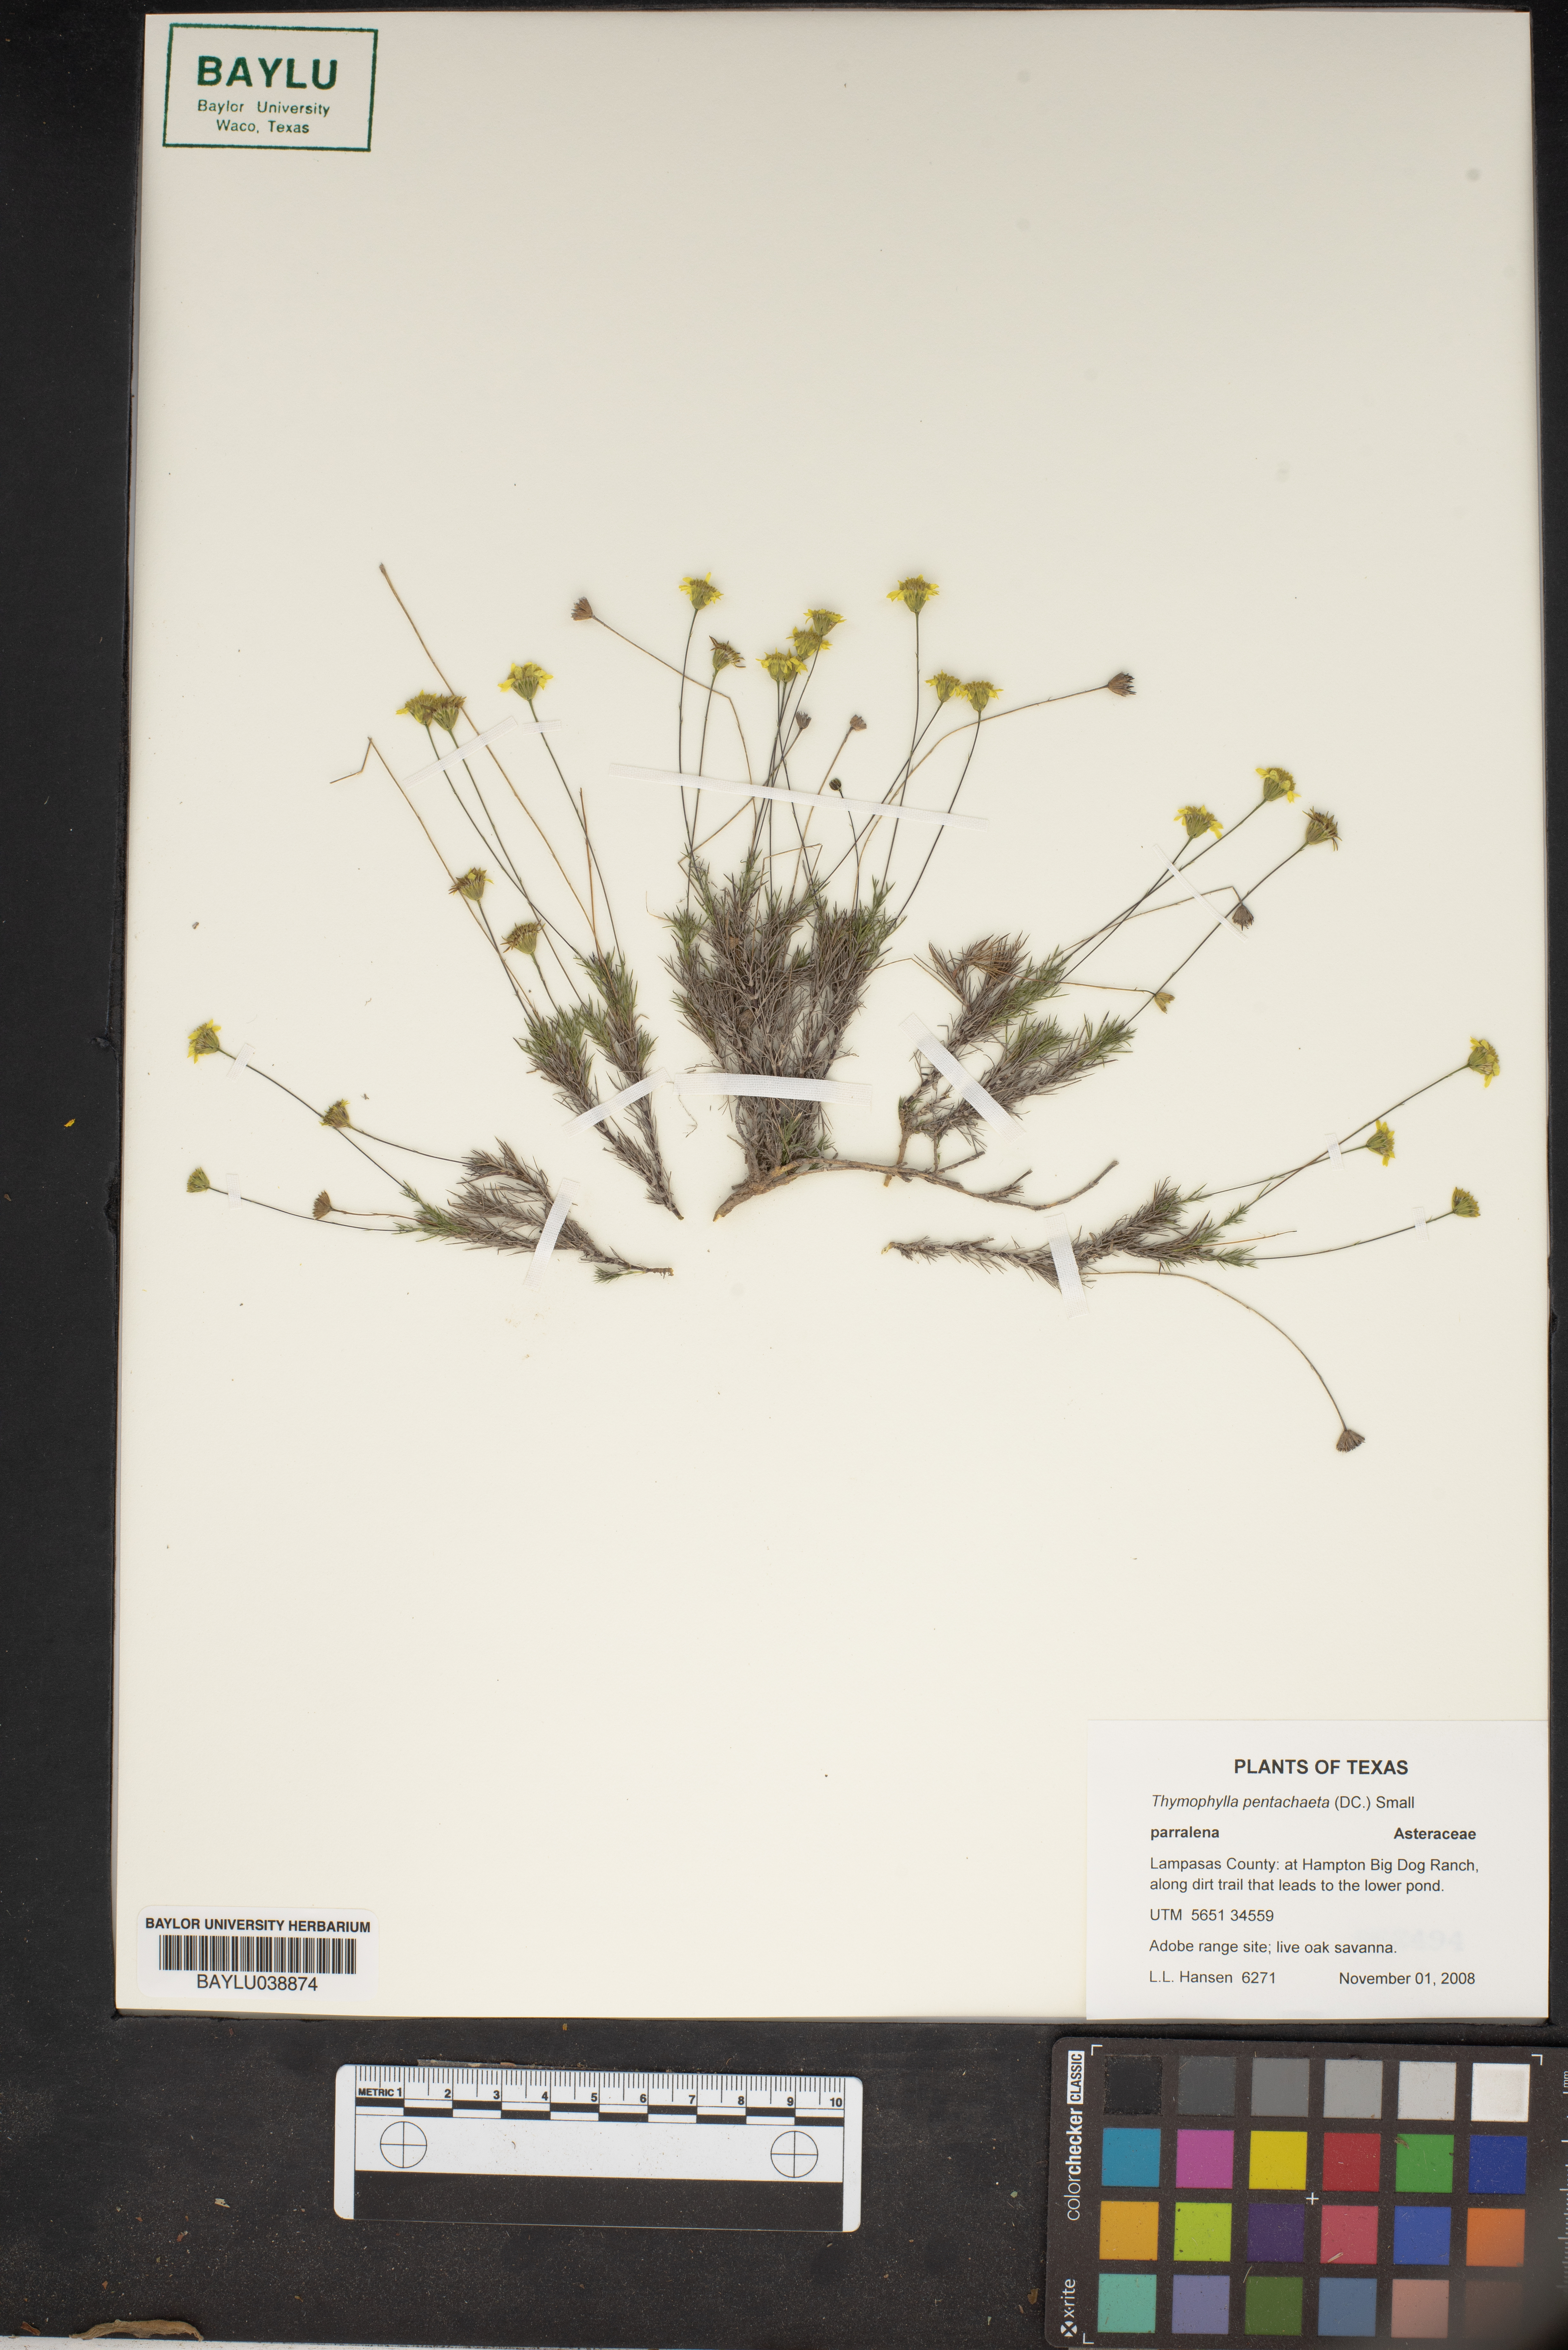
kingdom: Plantae
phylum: Tracheophyta
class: Magnoliopsida
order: Asterales
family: Asteraceae
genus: Thymophylla
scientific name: Thymophylla pentachaeta
